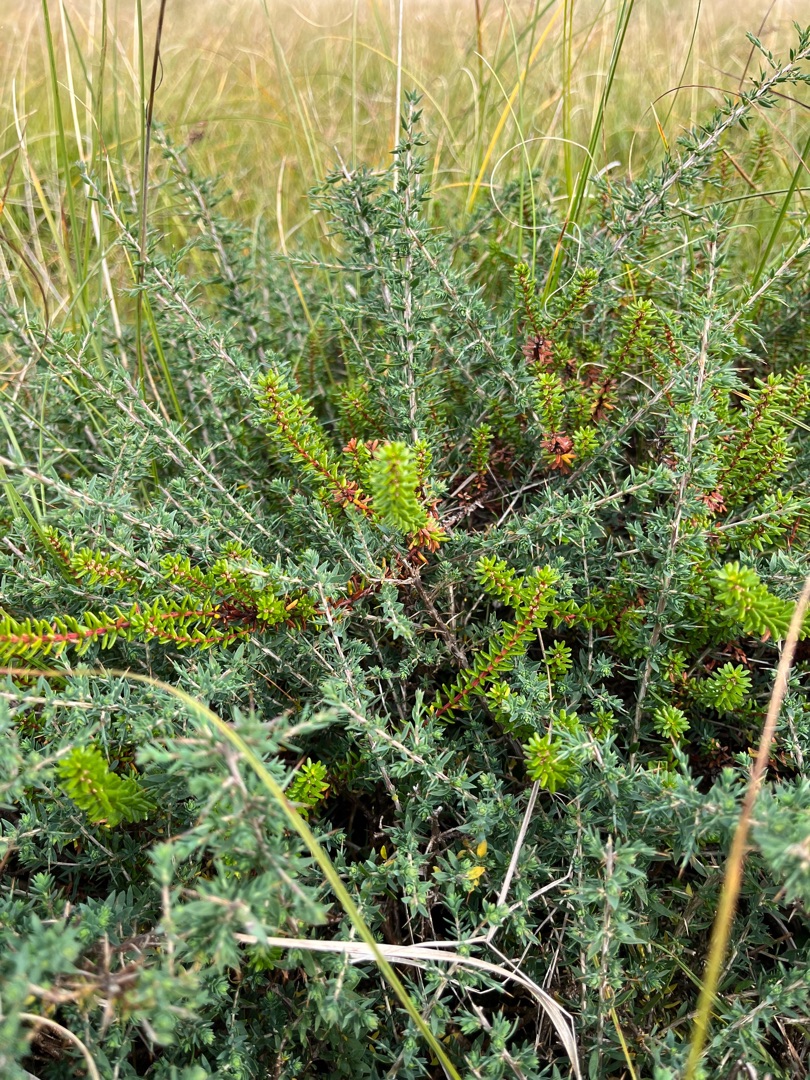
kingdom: Plantae
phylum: Tracheophyta
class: Magnoliopsida
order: Fabales
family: Fabaceae
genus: Genista
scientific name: Genista anglica
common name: Engelsk visse
